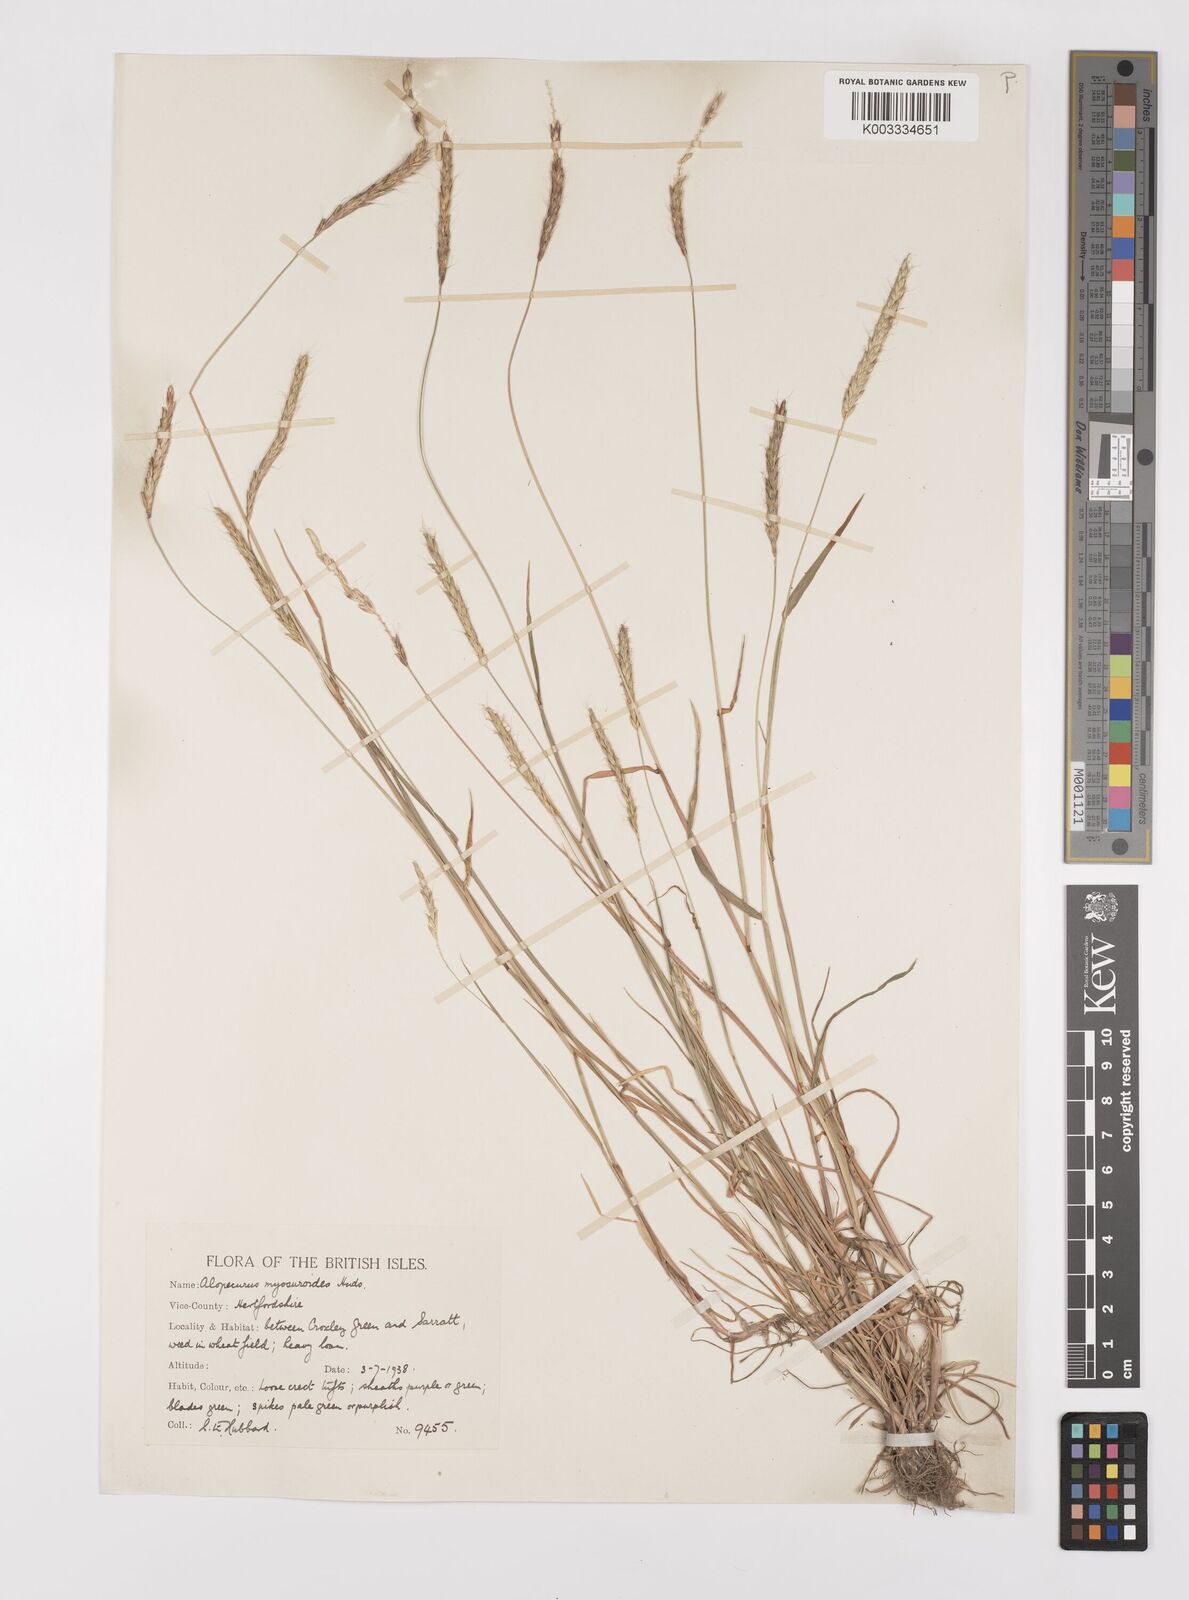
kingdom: Plantae
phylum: Tracheophyta
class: Liliopsida
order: Poales
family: Poaceae
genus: Alopecurus
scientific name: Alopecurus myosuroides
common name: Black-grass
